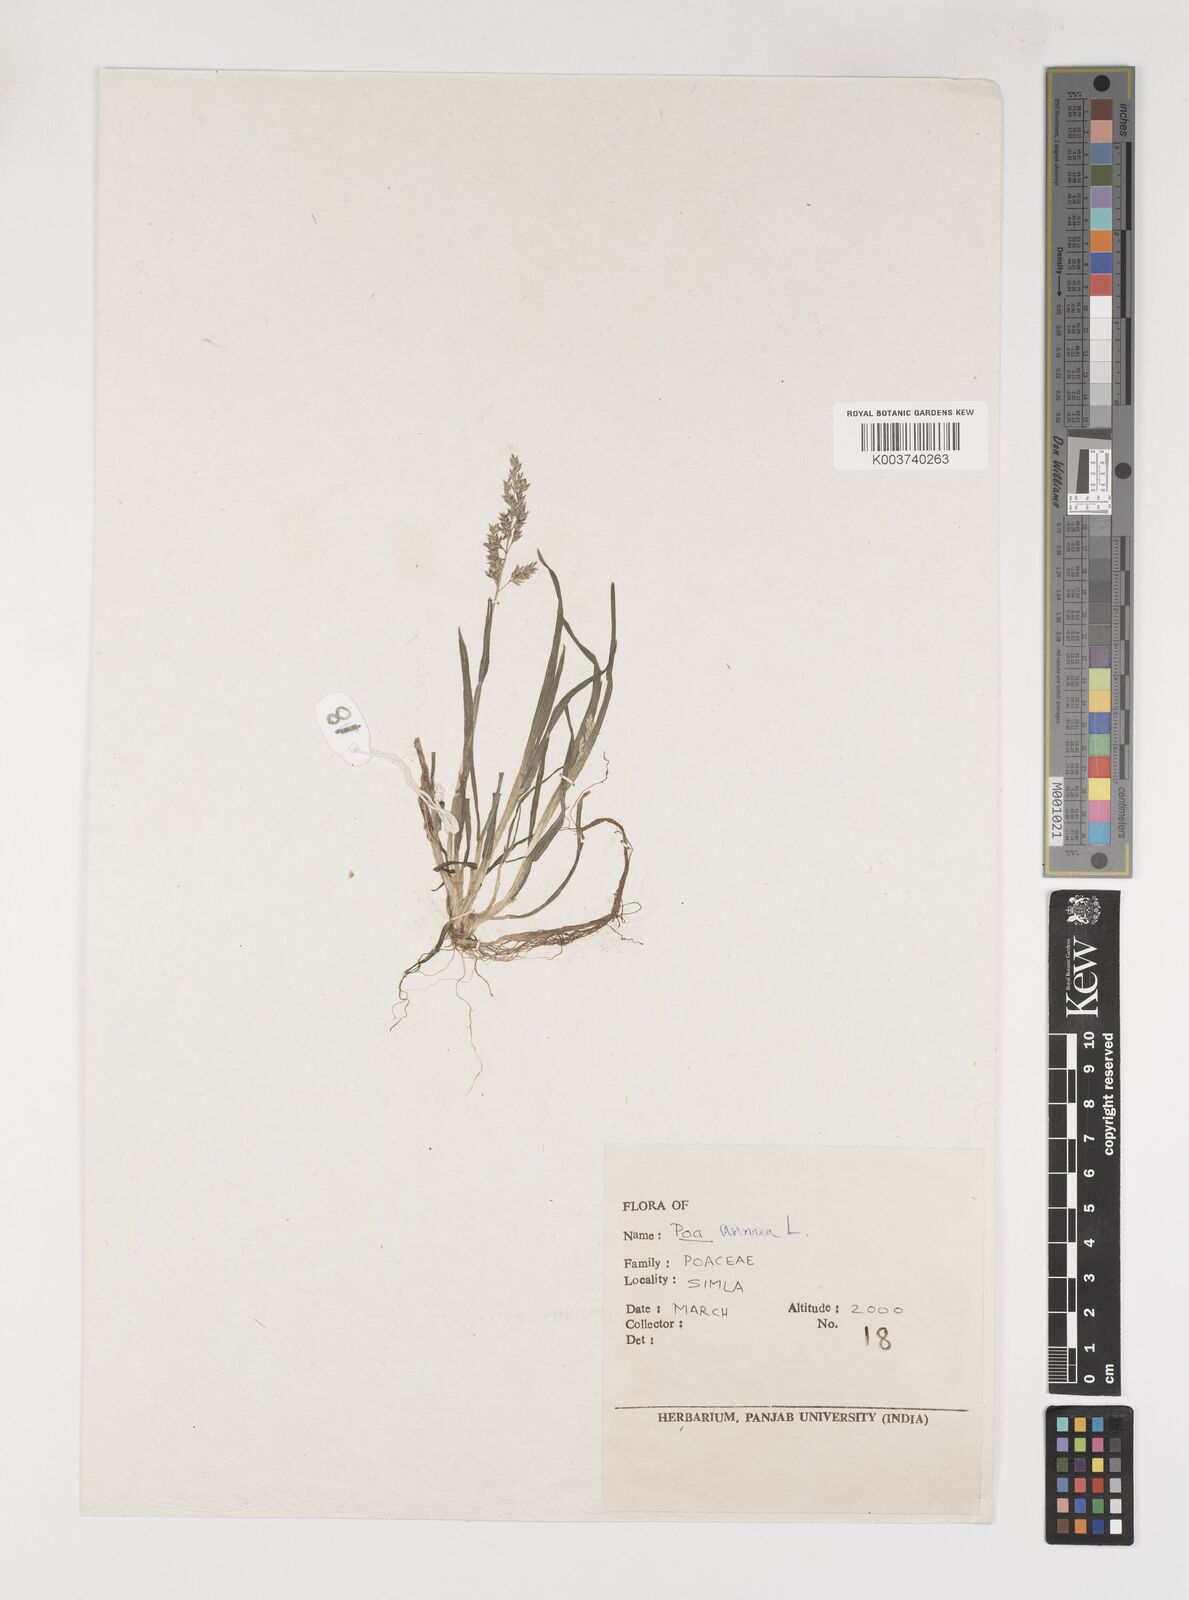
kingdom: Plantae
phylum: Tracheophyta
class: Liliopsida
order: Poales
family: Poaceae
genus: Poa
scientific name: Poa annua
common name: Annual bluegrass
